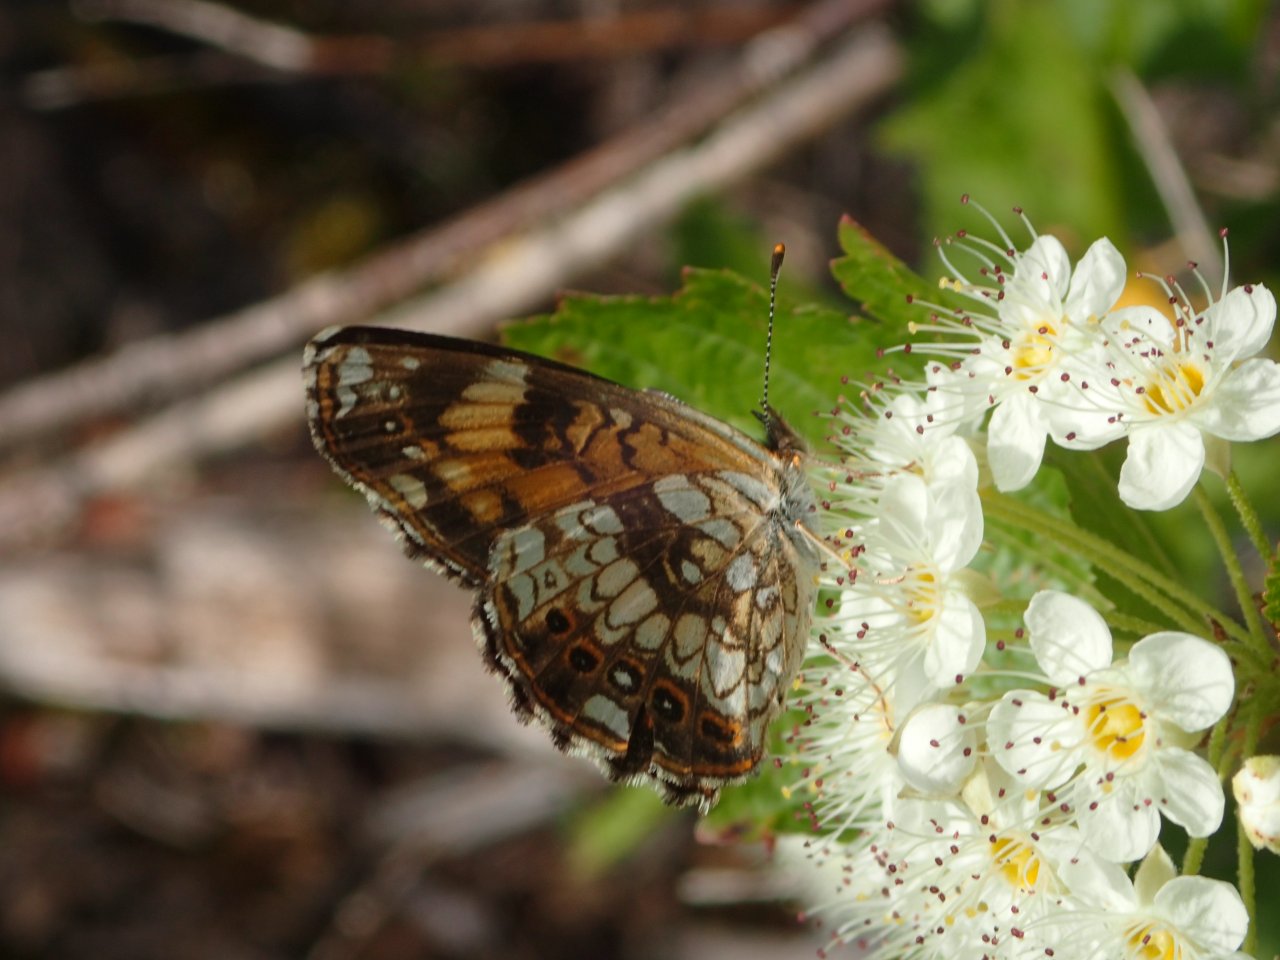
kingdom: Animalia
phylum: Arthropoda
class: Insecta
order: Lepidoptera
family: Nymphalidae
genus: Chlosyne
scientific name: Chlosyne nycteis
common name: Silvery Checkerspot
